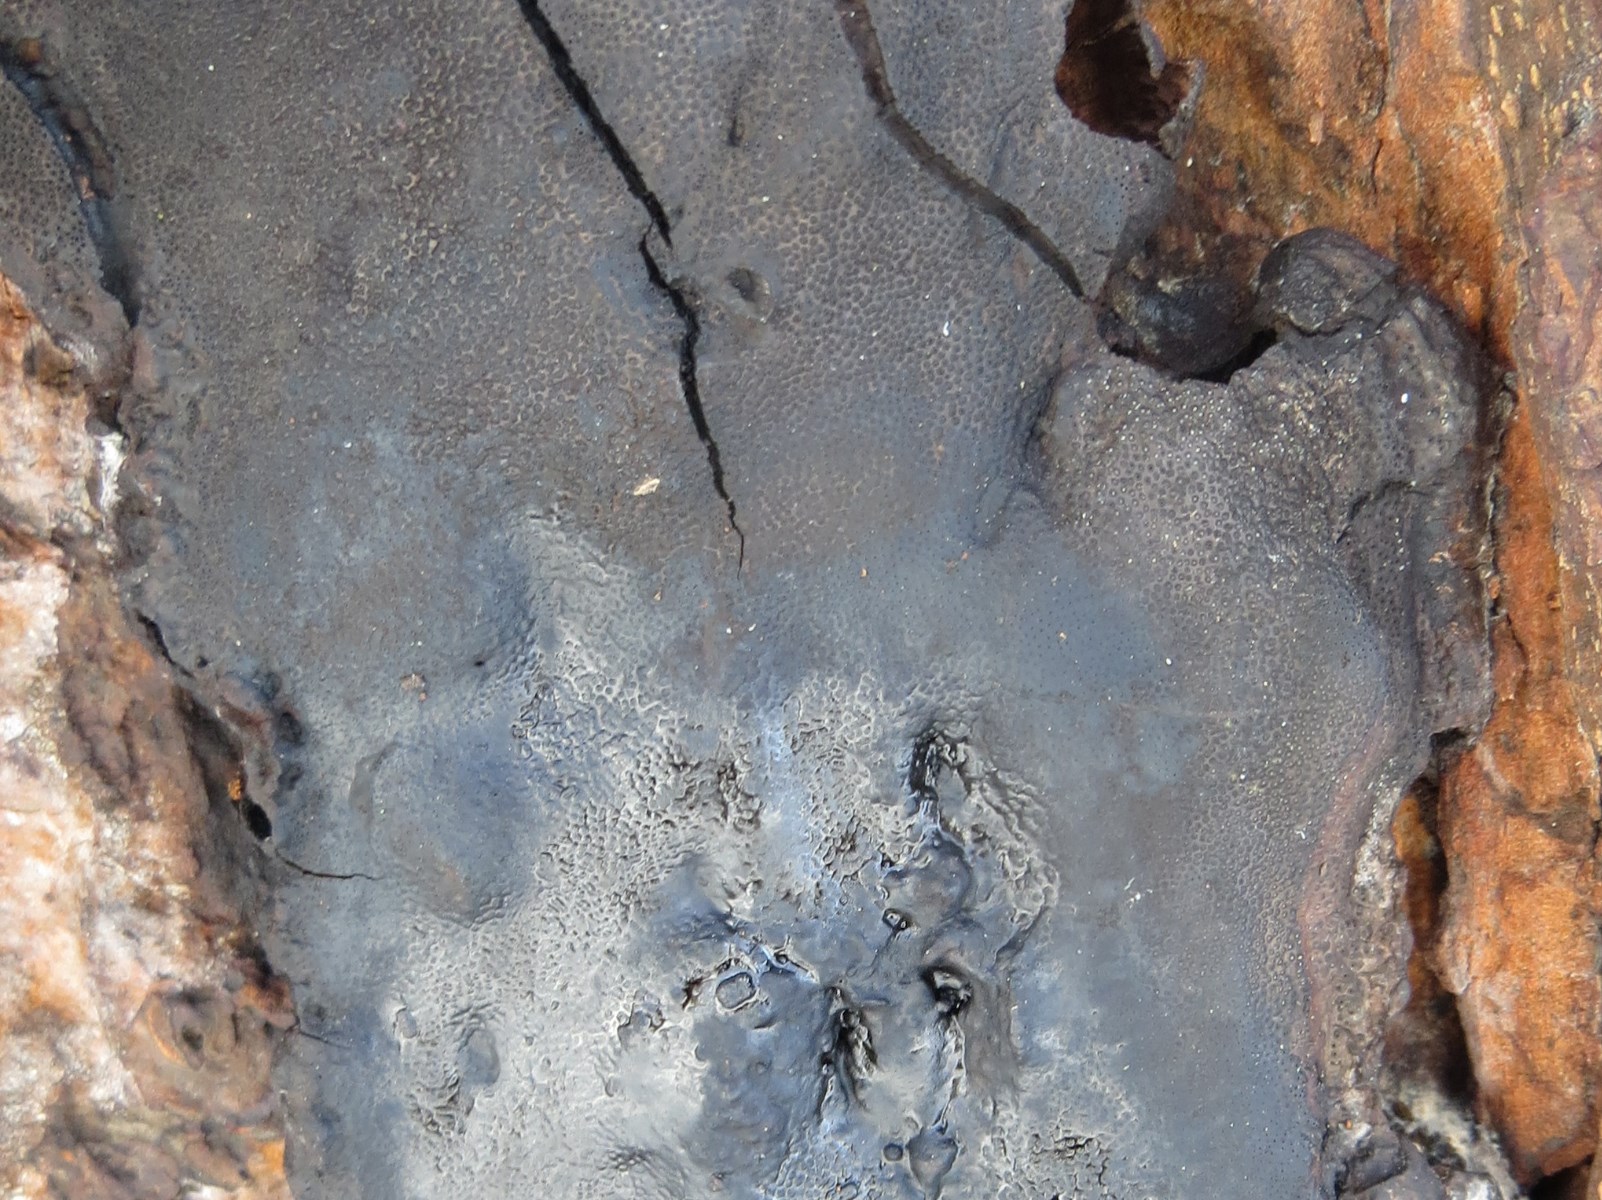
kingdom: Fungi
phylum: Ascomycota
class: Sordariomycetes
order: Boliniales
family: Boliniaceae
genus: Camarops
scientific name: Camarops polysperma
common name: elle-kulsnegl
